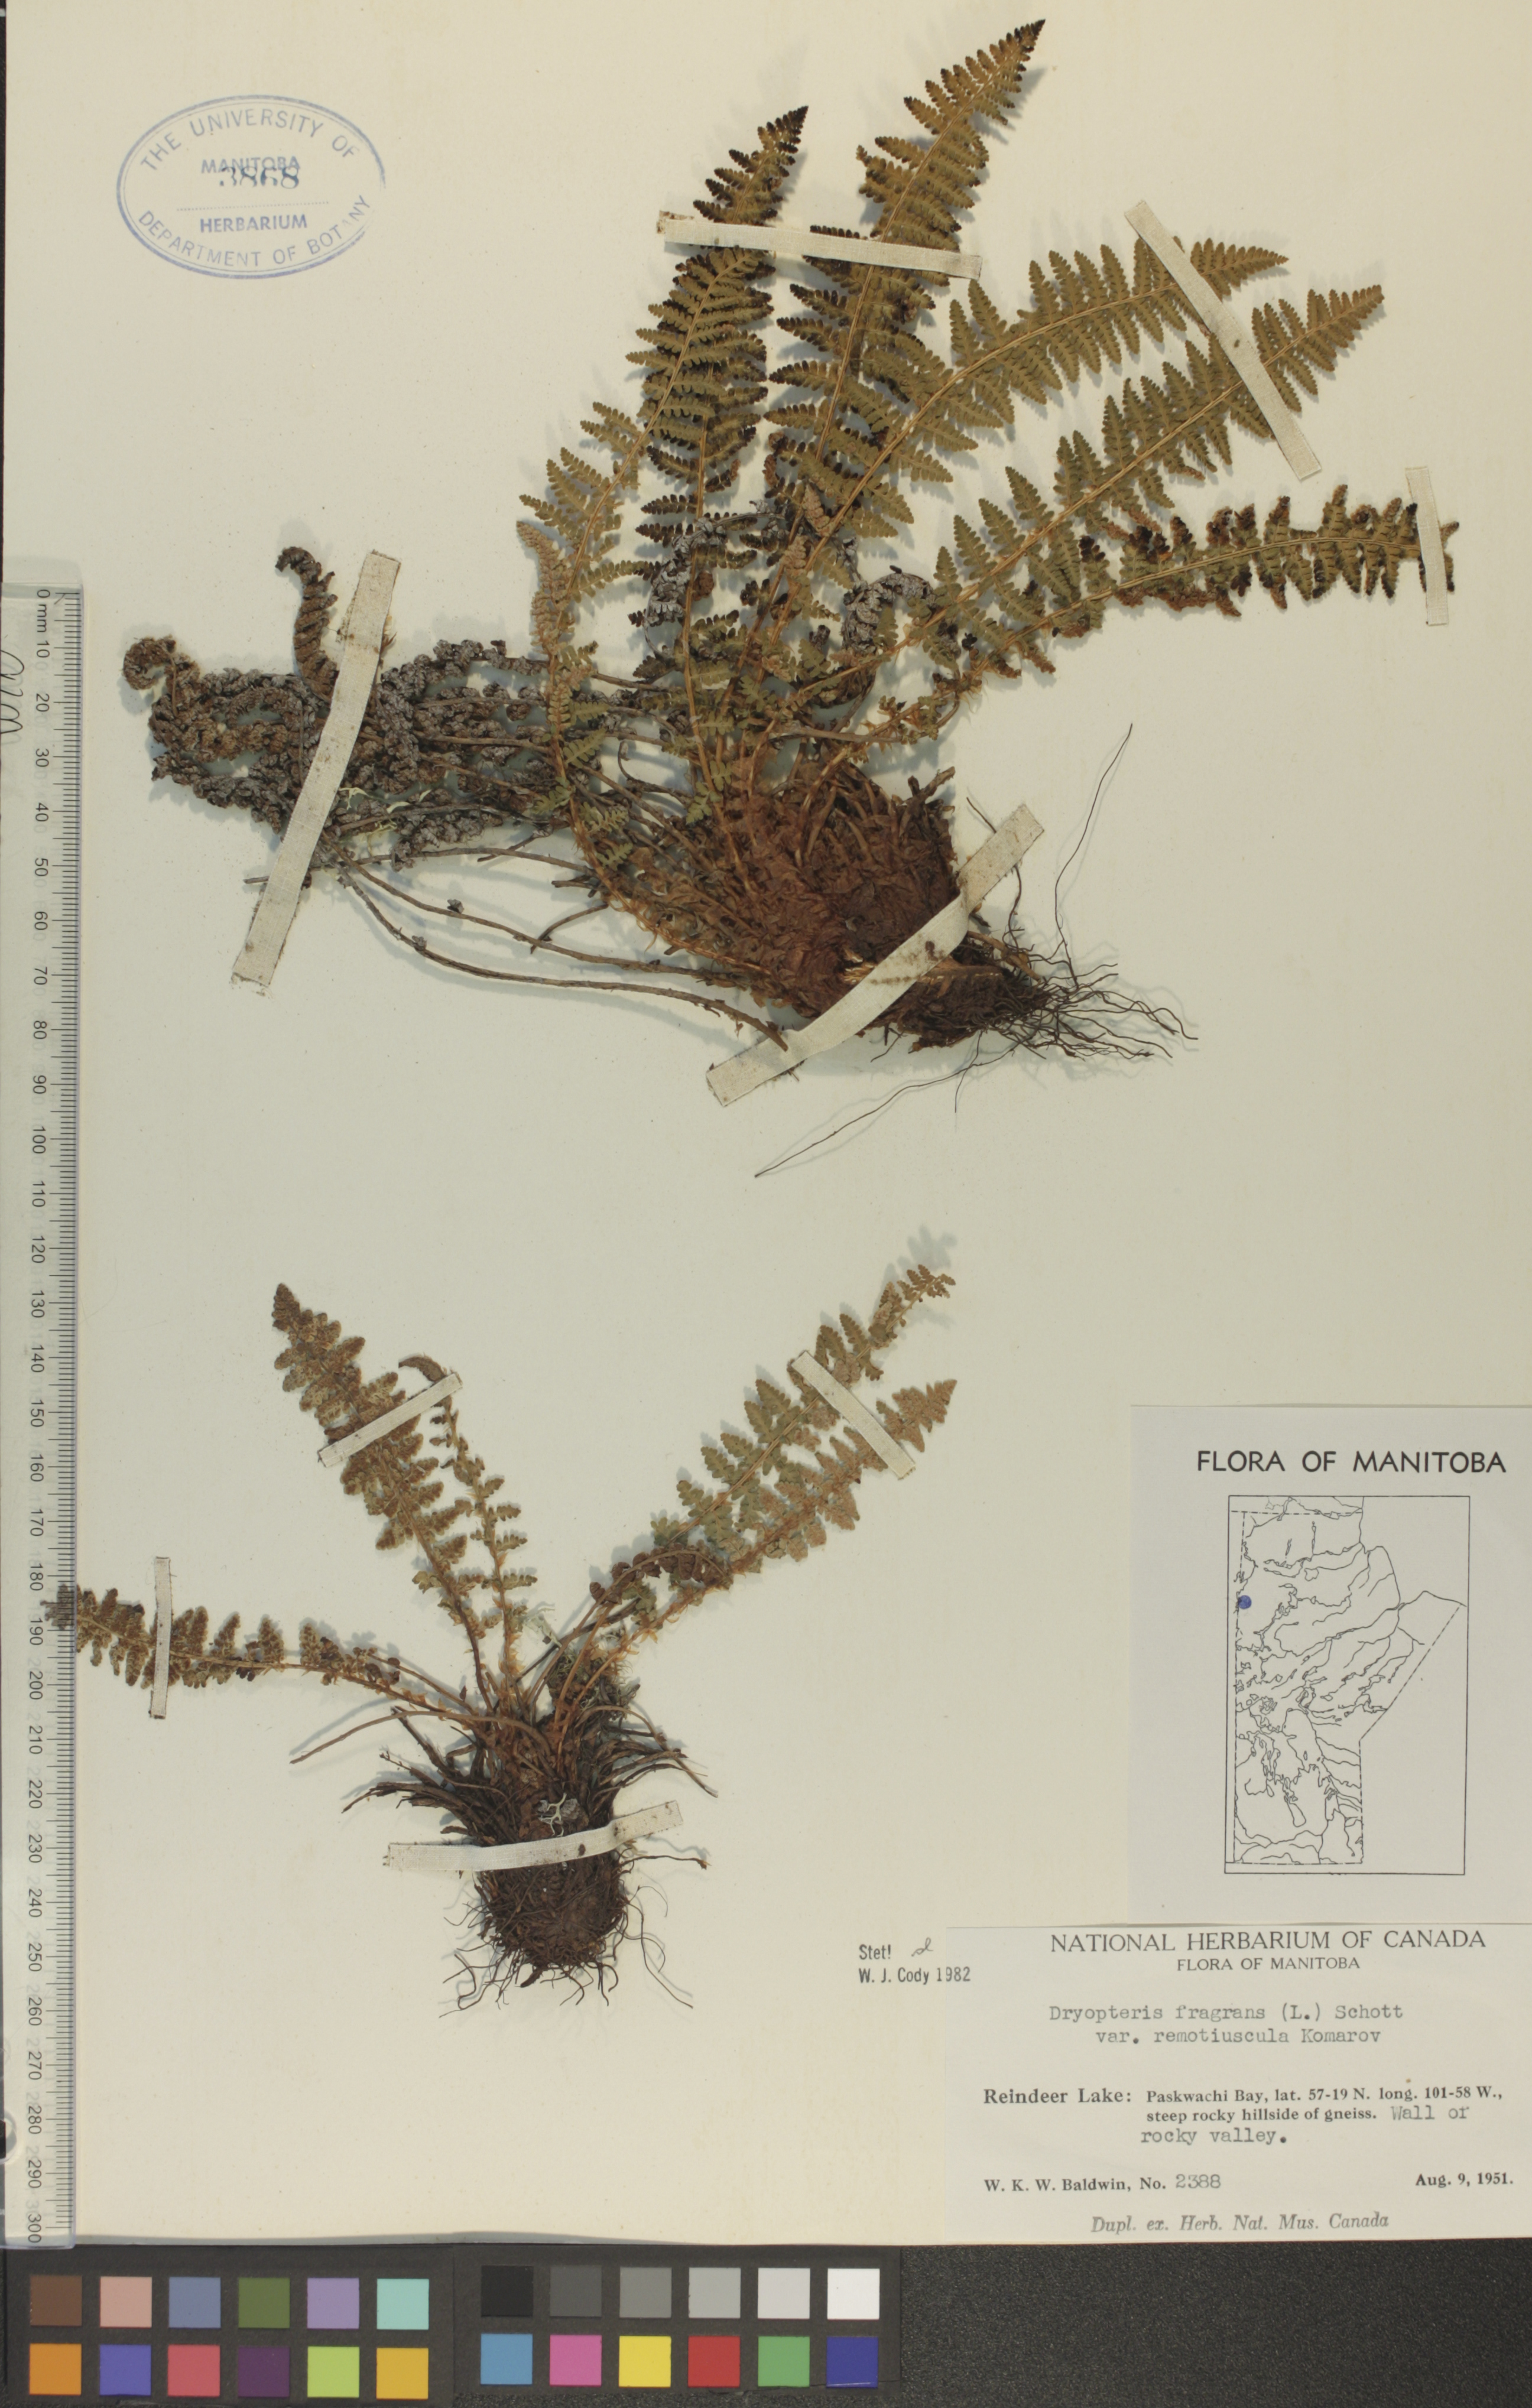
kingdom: Plantae
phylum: Tracheophyta
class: Polypodiopsida
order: Polypodiales
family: Dryopteridaceae
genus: Dryopteris
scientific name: Dryopteris fragrans
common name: Fragrant wood fern
